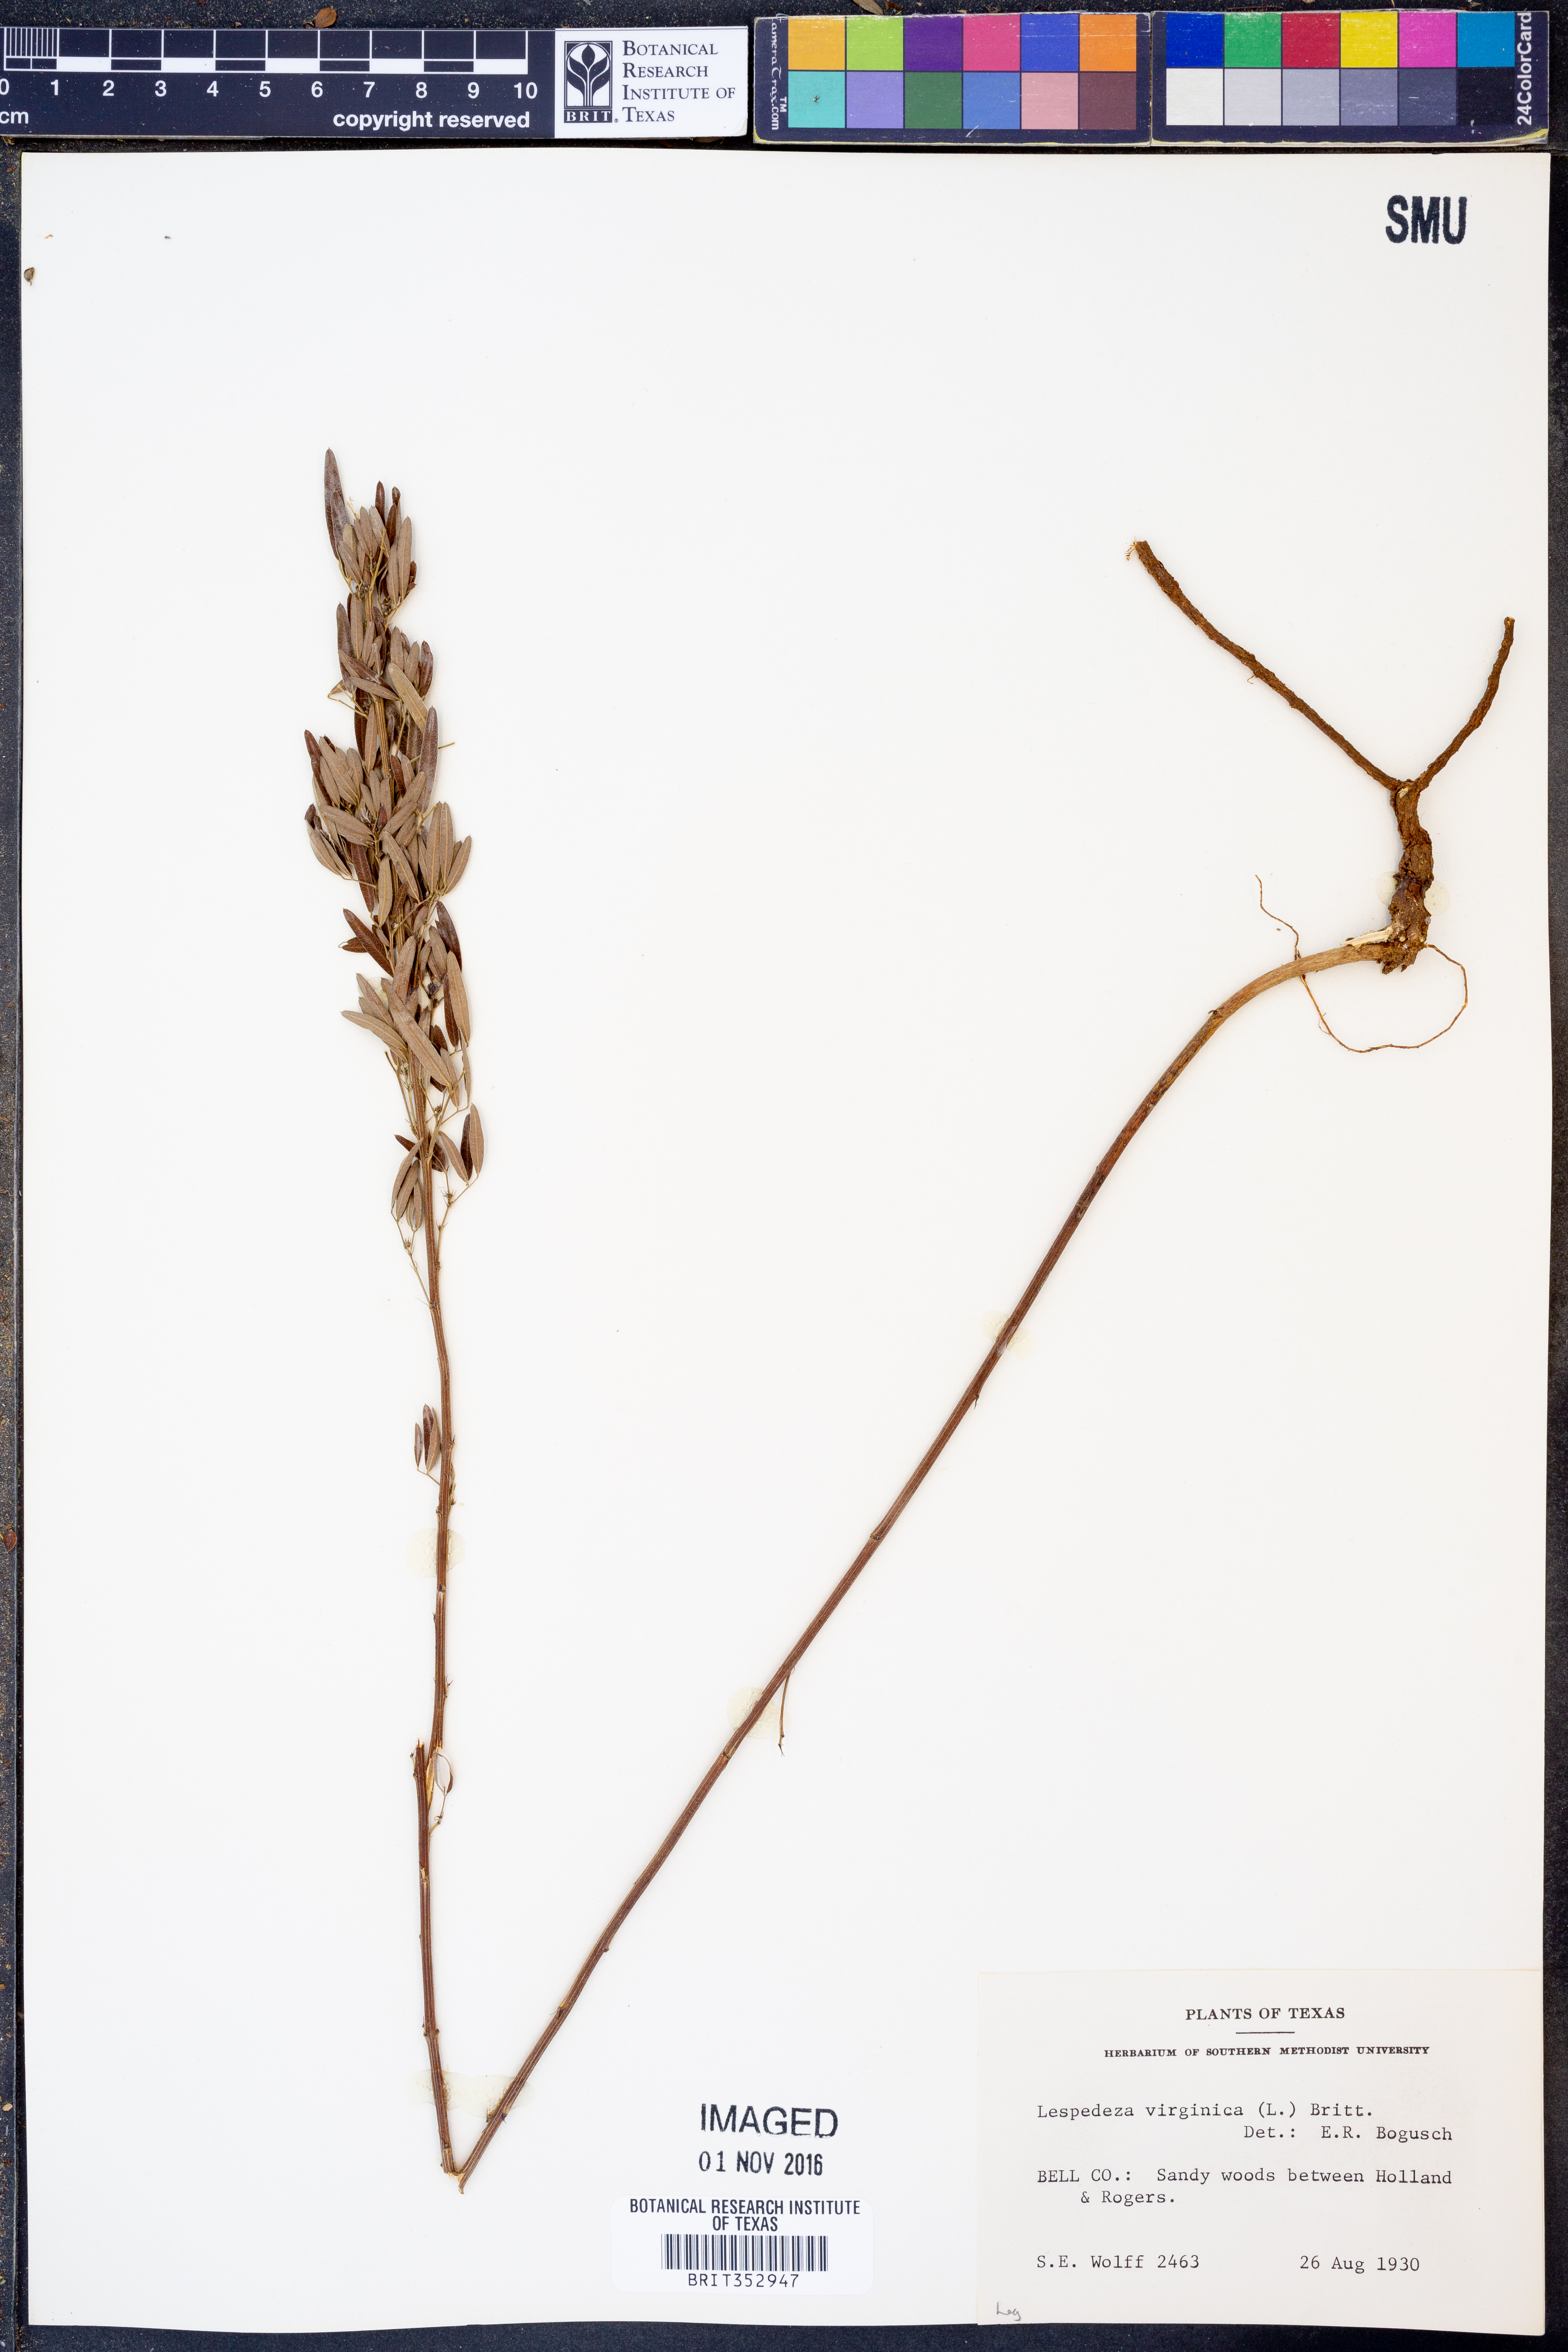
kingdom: Plantae
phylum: Tracheophyta
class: Magnoliopsida
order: Fabales
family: Fabaceae
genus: Lespedeza
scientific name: Lespedeza virginica
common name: Slender bush-clover
